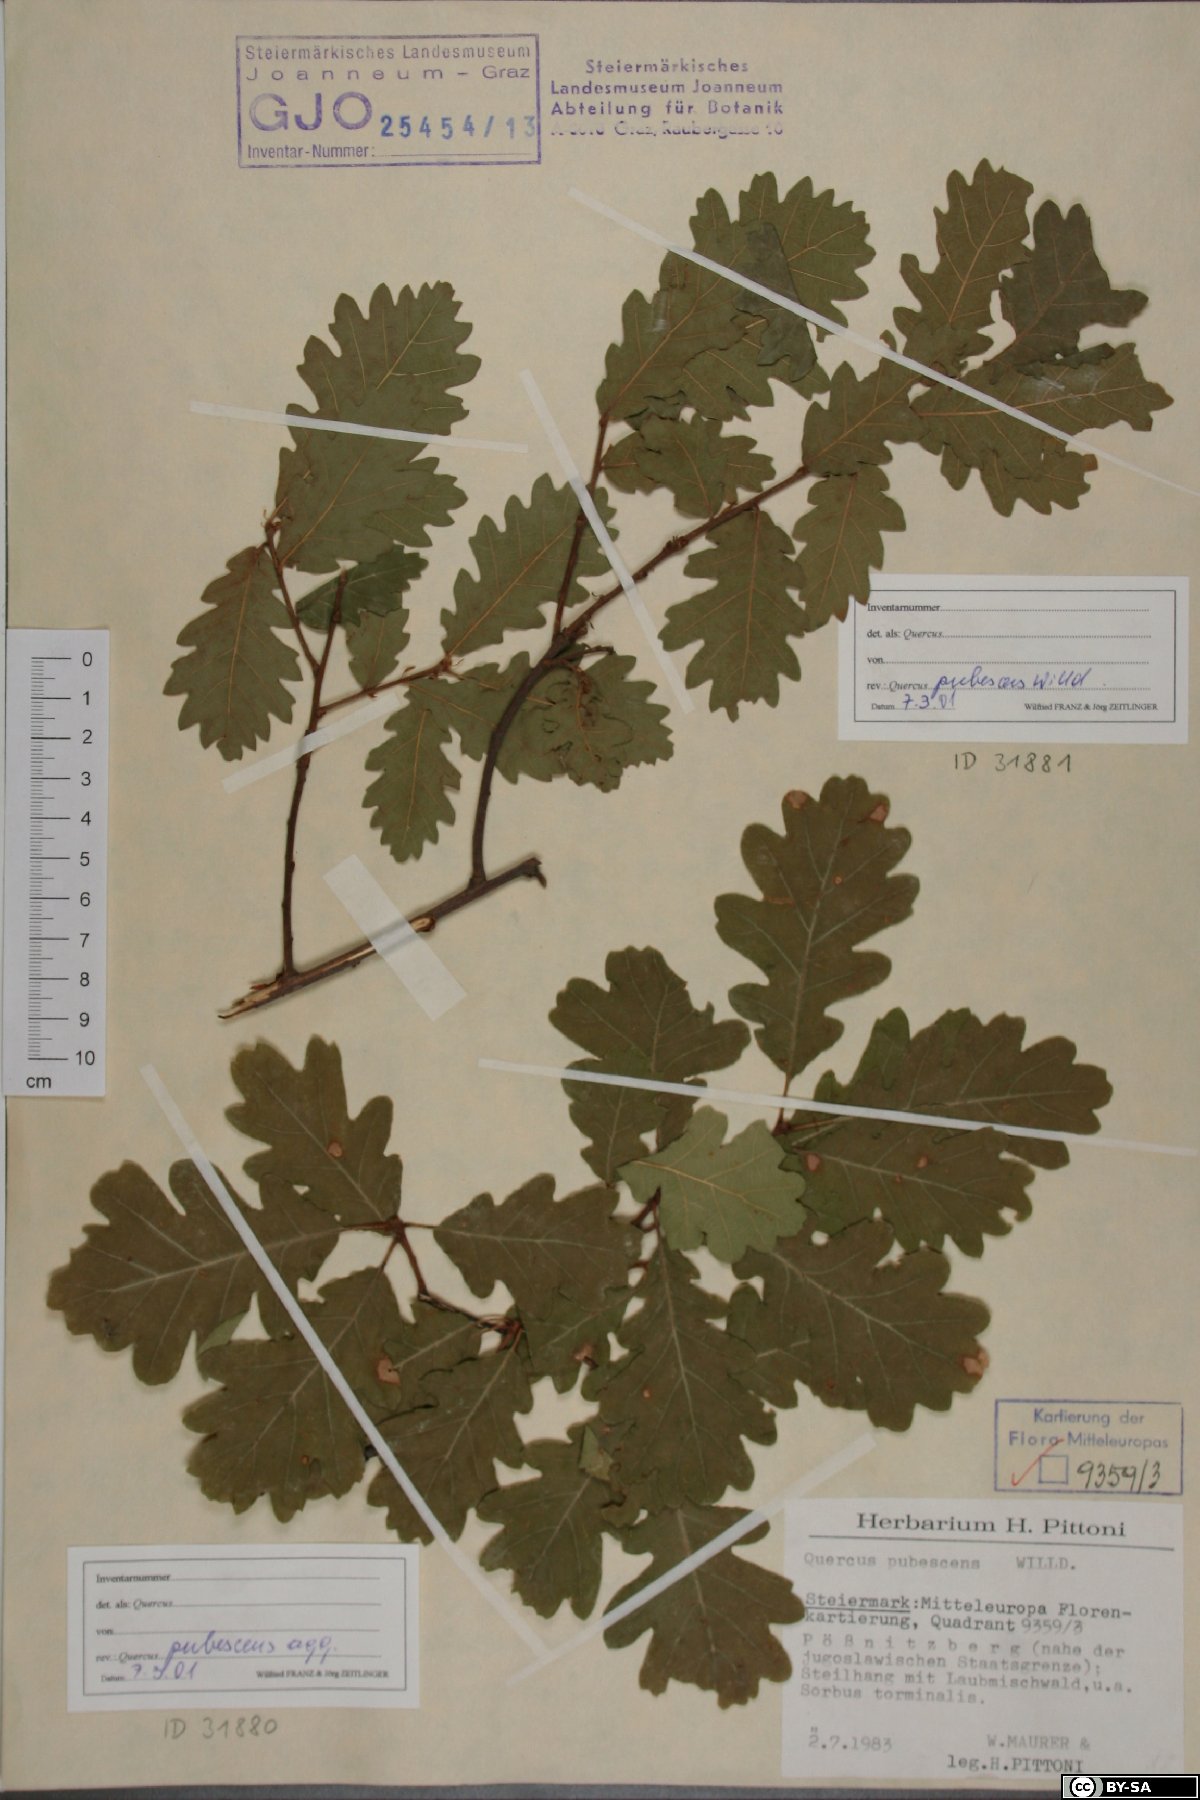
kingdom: Plantae
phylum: Tracheophyta
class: Magnoliopsida
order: Fagales
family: Fagaceae
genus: Quercus
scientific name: Quercus pubescens
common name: Downy oak
